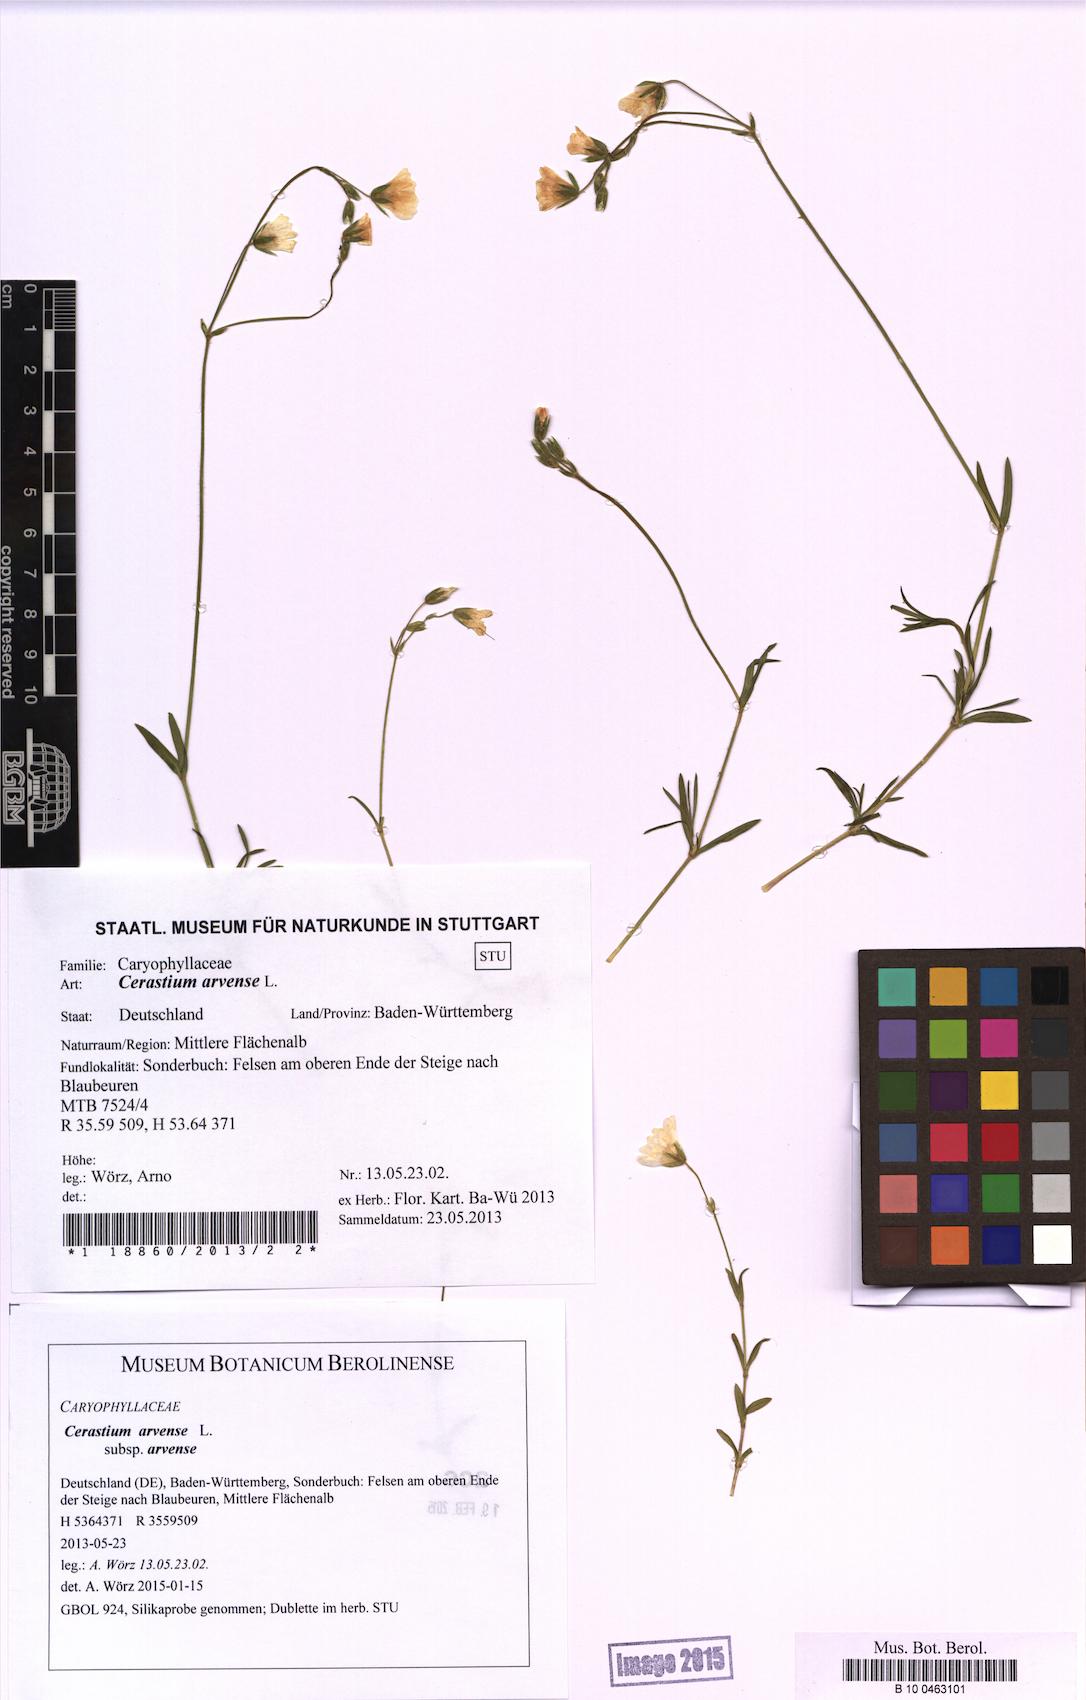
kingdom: Plantae
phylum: Tracheophyta
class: Magnoliopsida
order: Caryophyllales
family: Caryophyllaceae
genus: Cerastium
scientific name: Cerastium arvense
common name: Field mouse-ear
